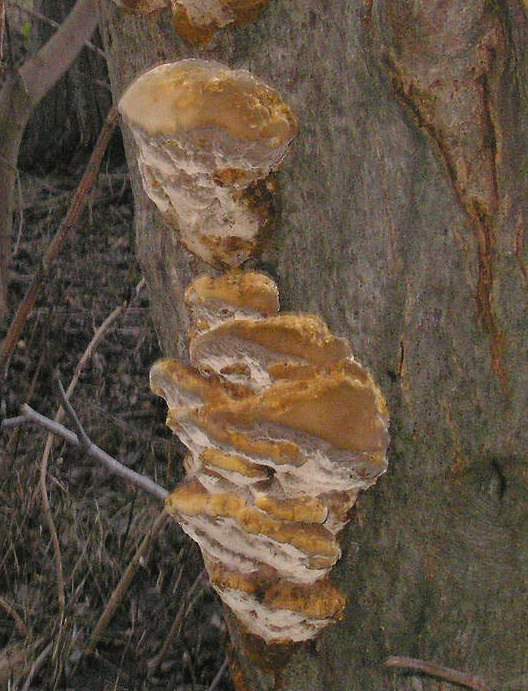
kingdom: Fungi
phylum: Basidiomycota
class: Agaricomycetes
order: Hymenochaetales
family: Hymenochaetaceae
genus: Xanthoporia
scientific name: Xanthoporia radiata
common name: elle-spejlporesvamp
